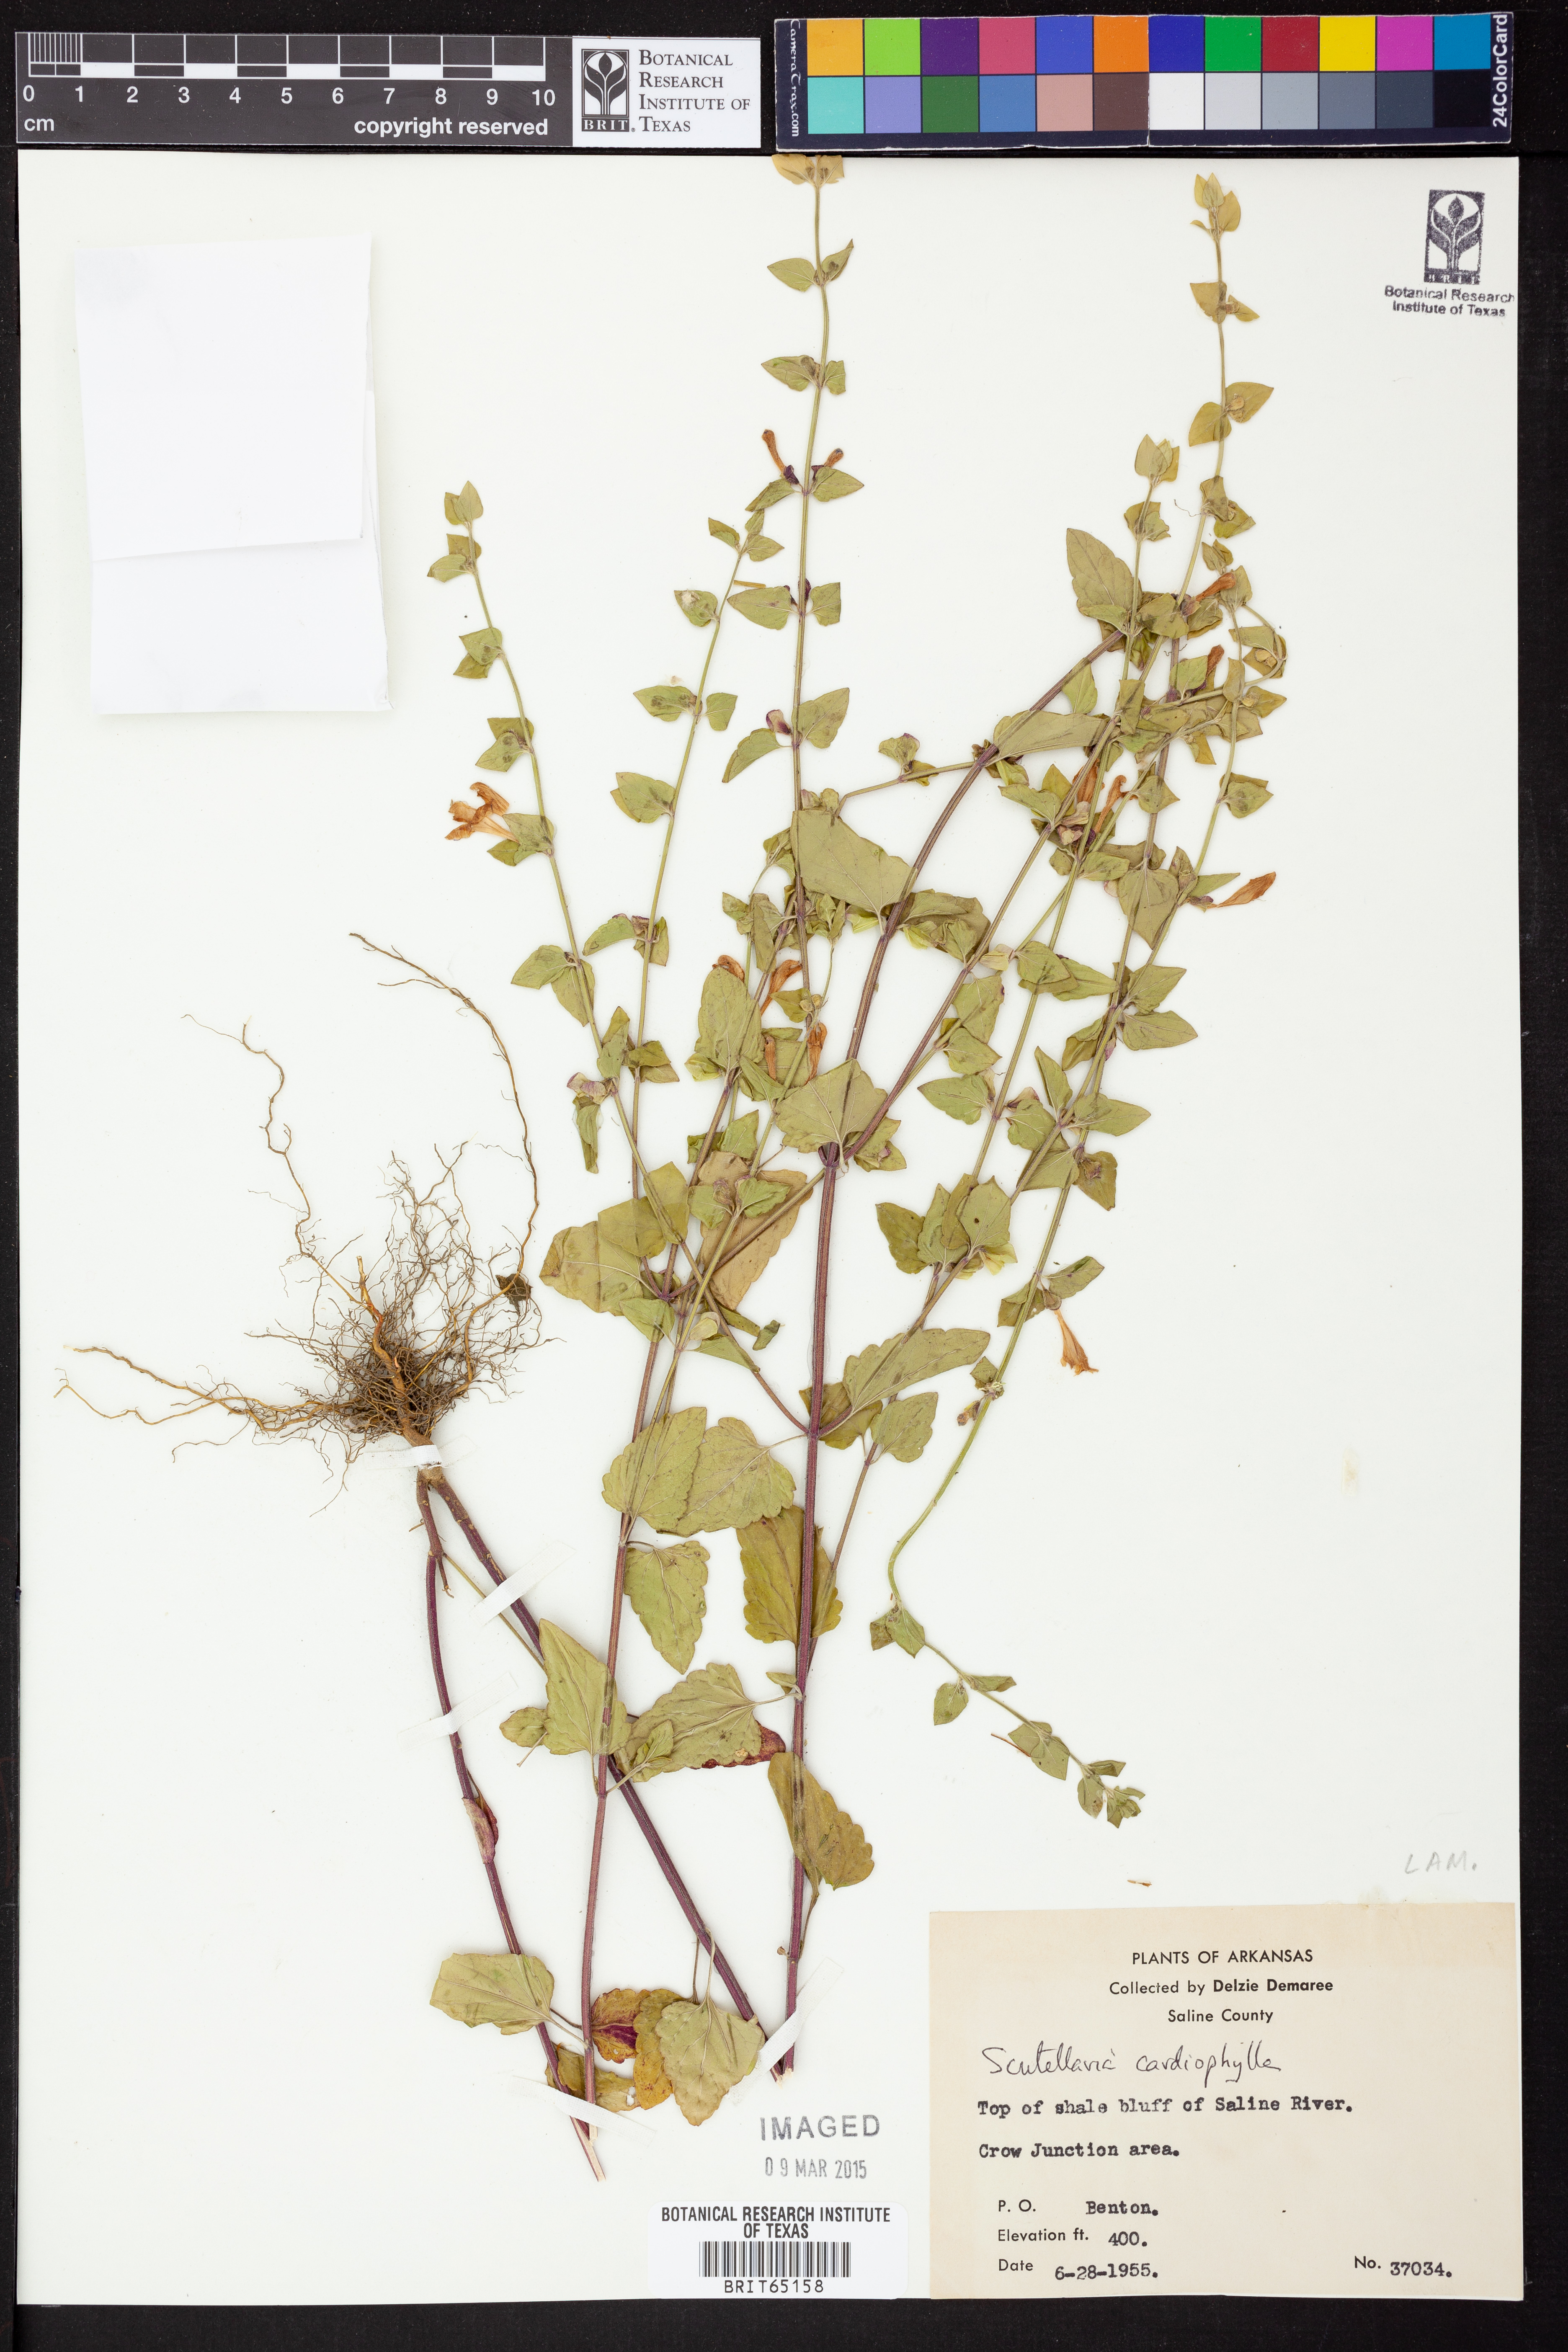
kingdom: Plantae
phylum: Tracheophyta
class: Magnoliopsida
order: Lamiales
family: Lamiaceae
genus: Scutellaria
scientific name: Scutellaria
